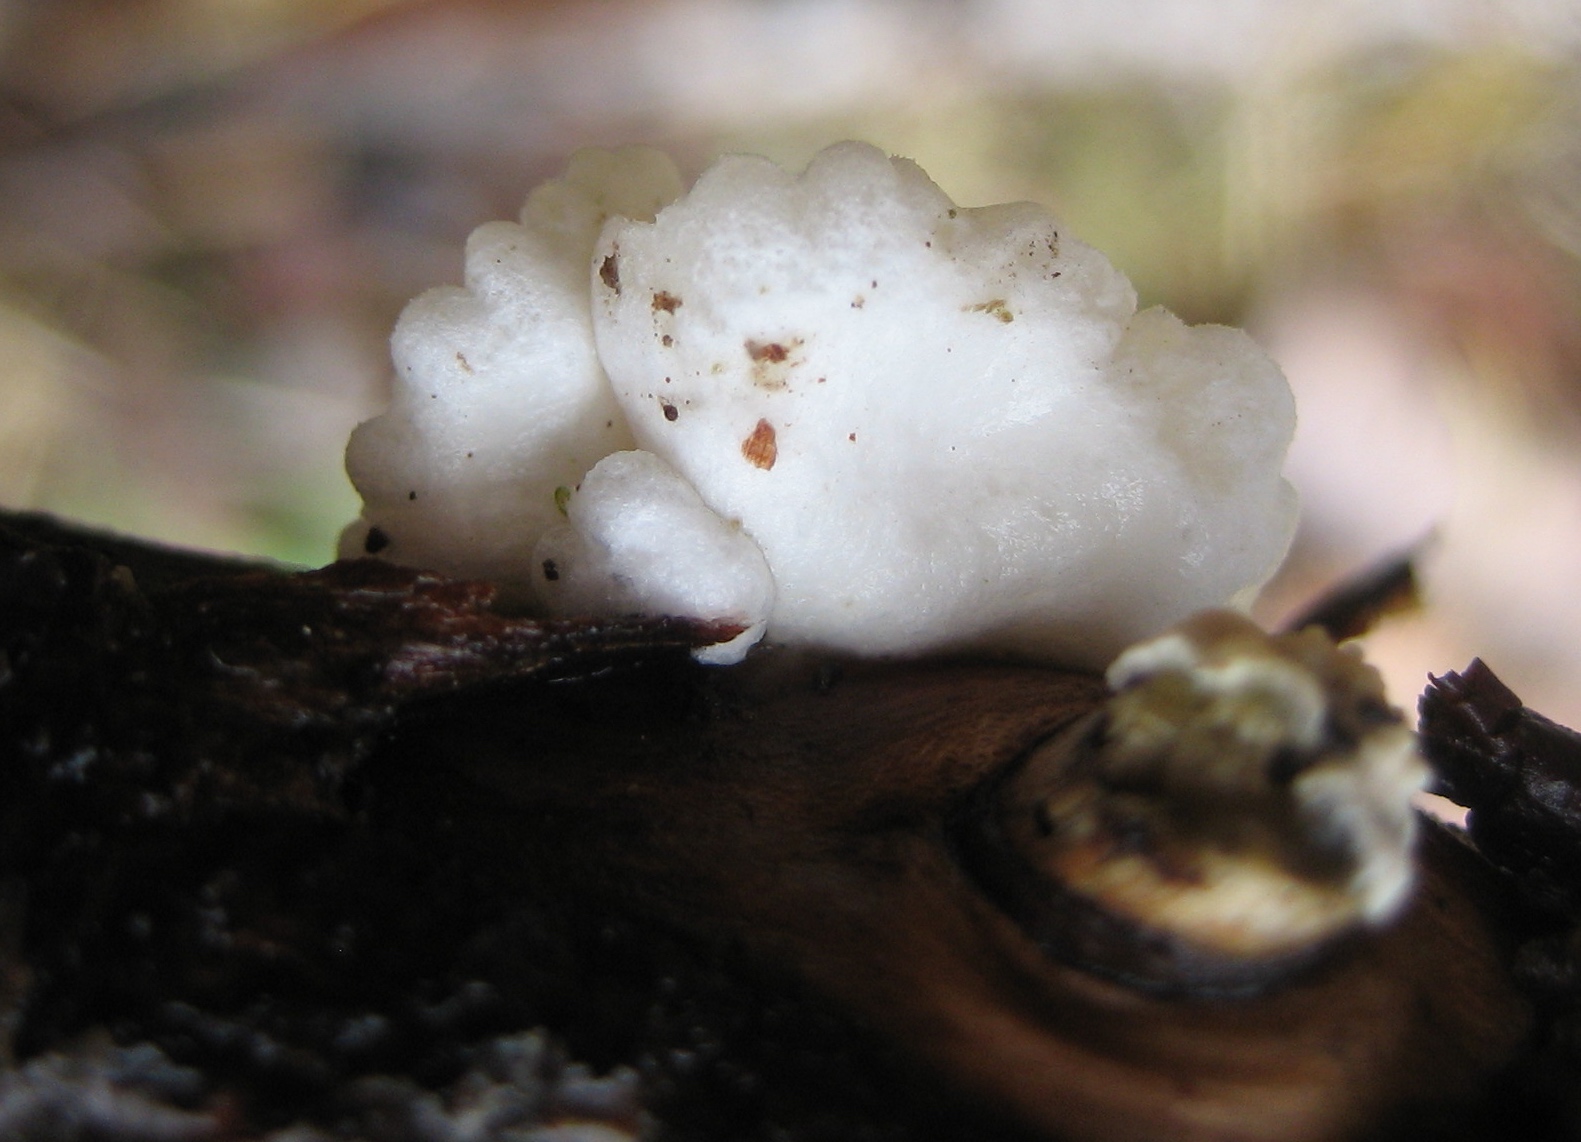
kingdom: Fungi
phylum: Basidiomycota
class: Agaricomycetes
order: Agaricales
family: Crepidotaceae
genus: Crepidotus
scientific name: Crepidotus
